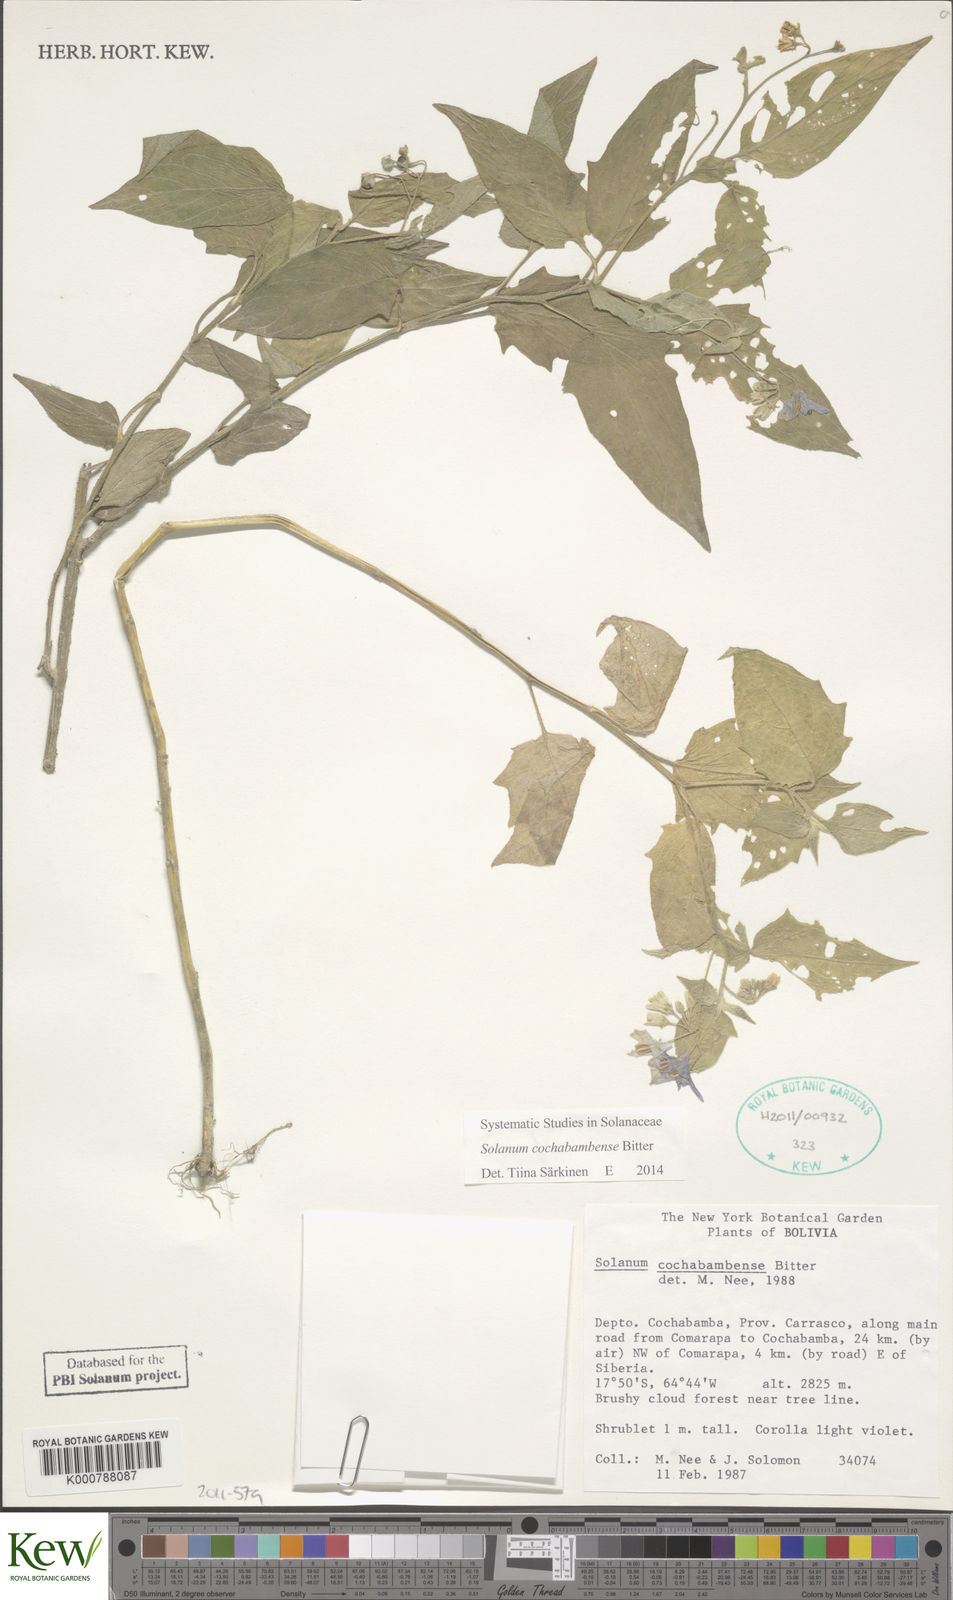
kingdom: Plantae
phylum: Tracheophyta
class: Magnoliopsida
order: Solanales
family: Solanaceae
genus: Solanum
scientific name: Solanum aloysiifolium
